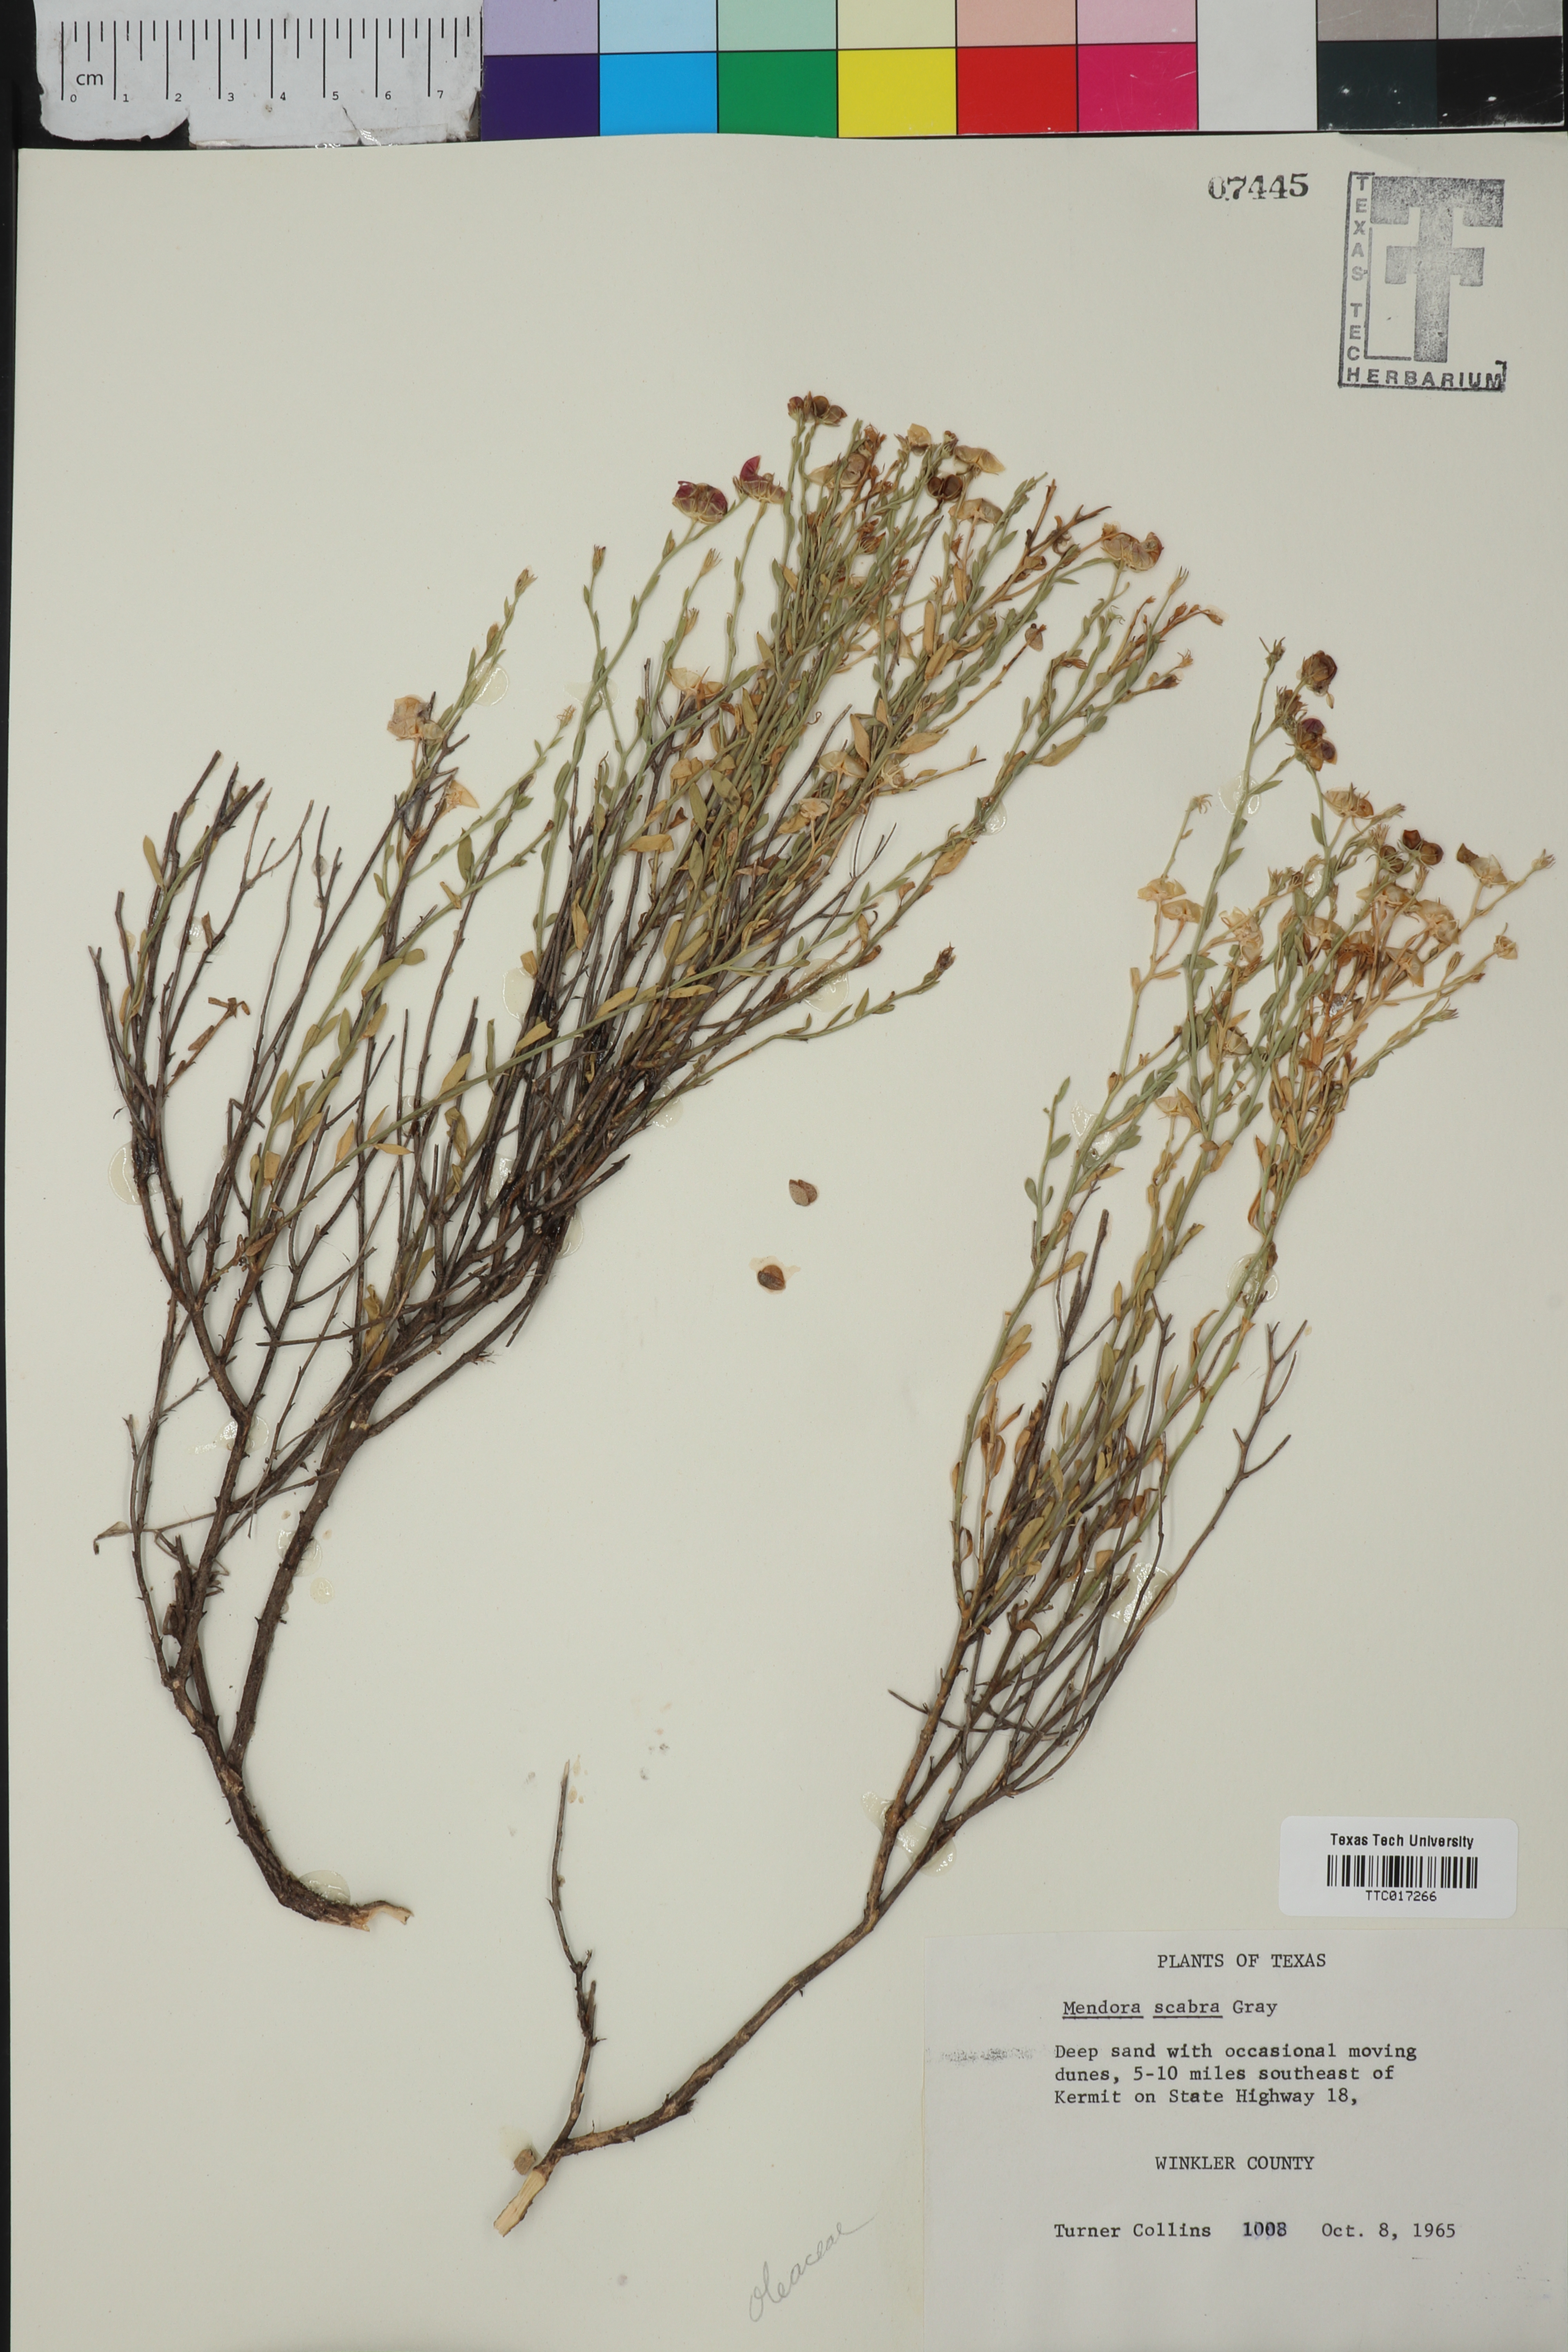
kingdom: Plantae
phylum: Tracheophyta
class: Magnoliopsida
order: Lamiales
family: Oleaceae
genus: Menodora
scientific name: Menodora scabra
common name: Rough menodora
